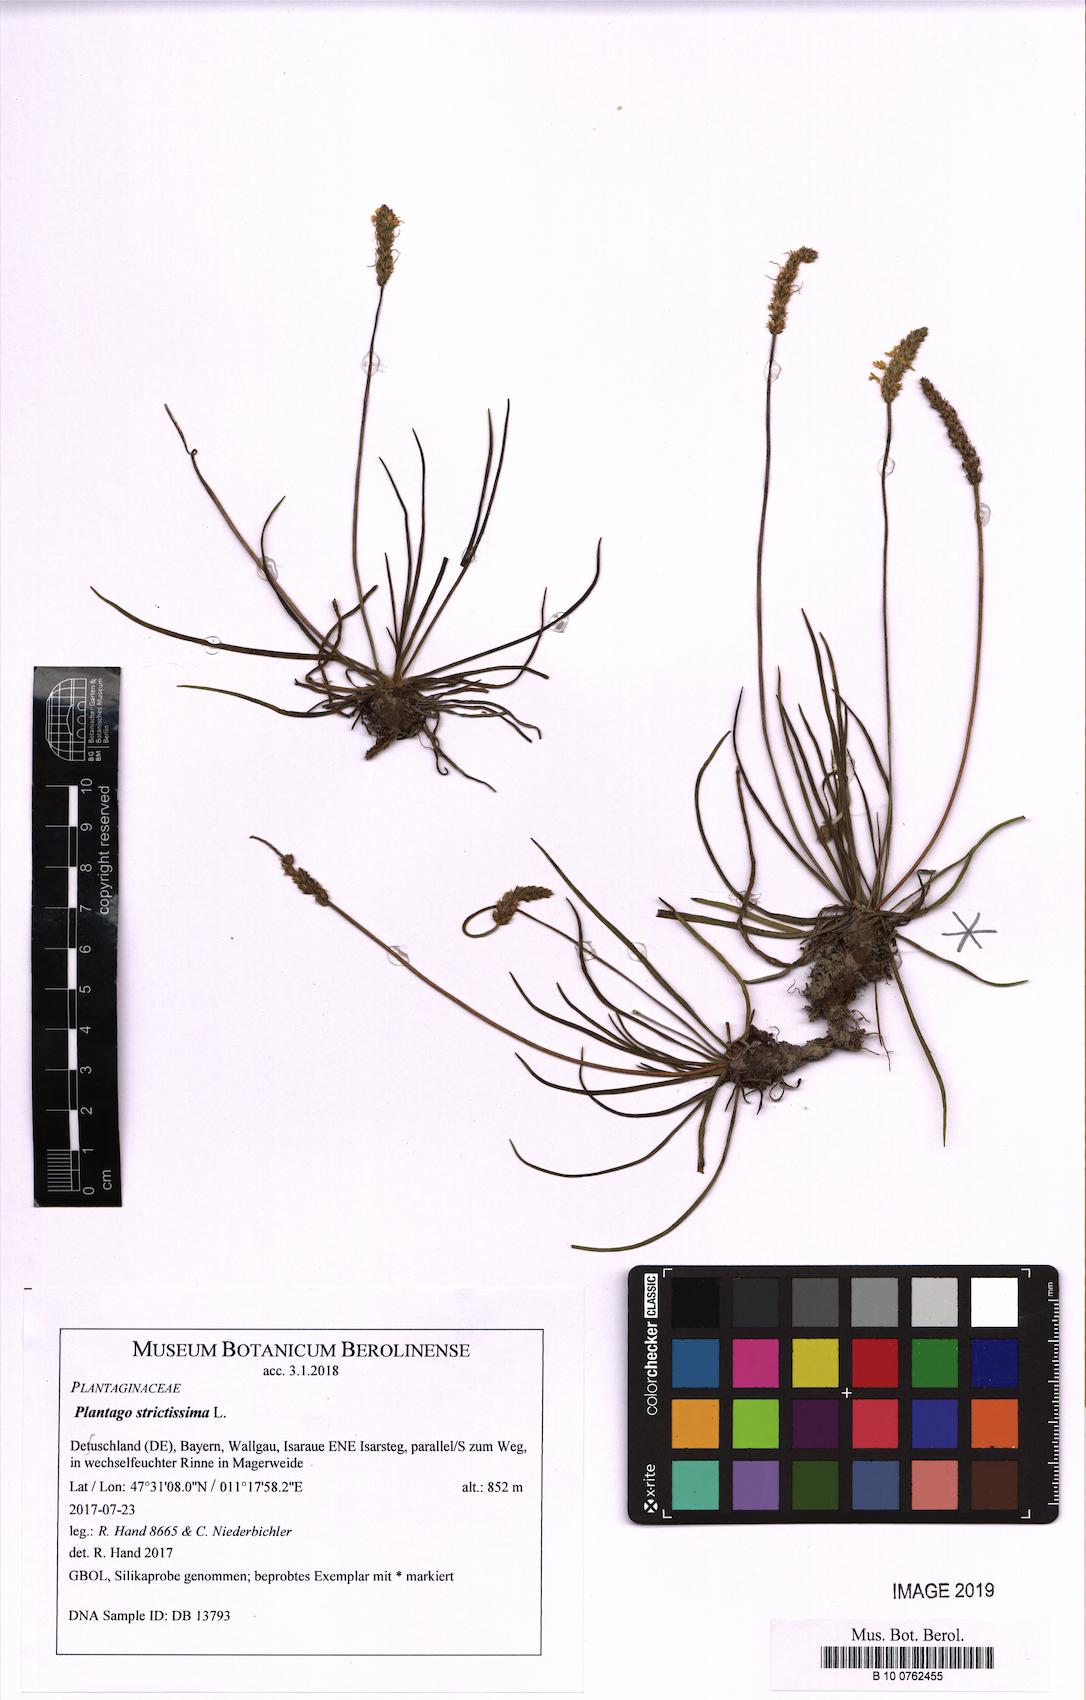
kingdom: Plantae
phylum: Tracheophyta
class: Magnoliopsida
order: Lamiales
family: Plantaginaceae
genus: Plantago
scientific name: Plantago strictissima
